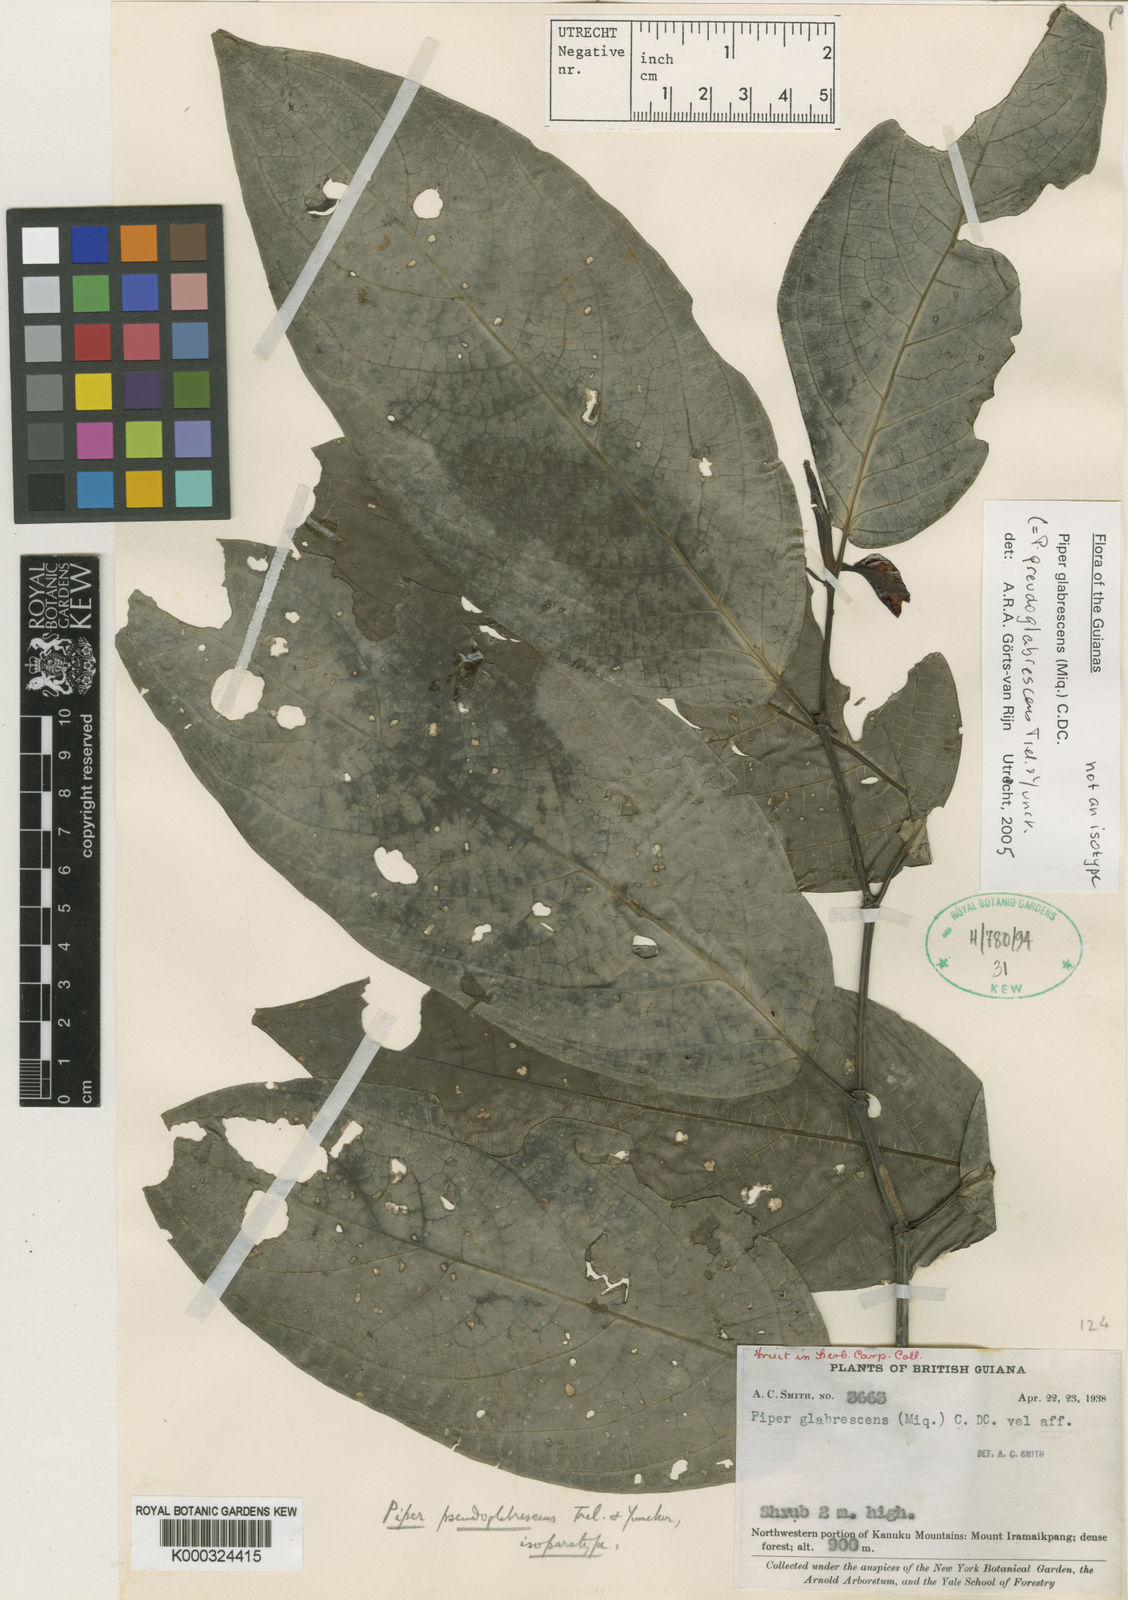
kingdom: Plantae
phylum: Tracheophyta
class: Magnoliopsida
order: Piperales
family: Piperaceae
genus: Piper
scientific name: Piper pseudoglabrescens
